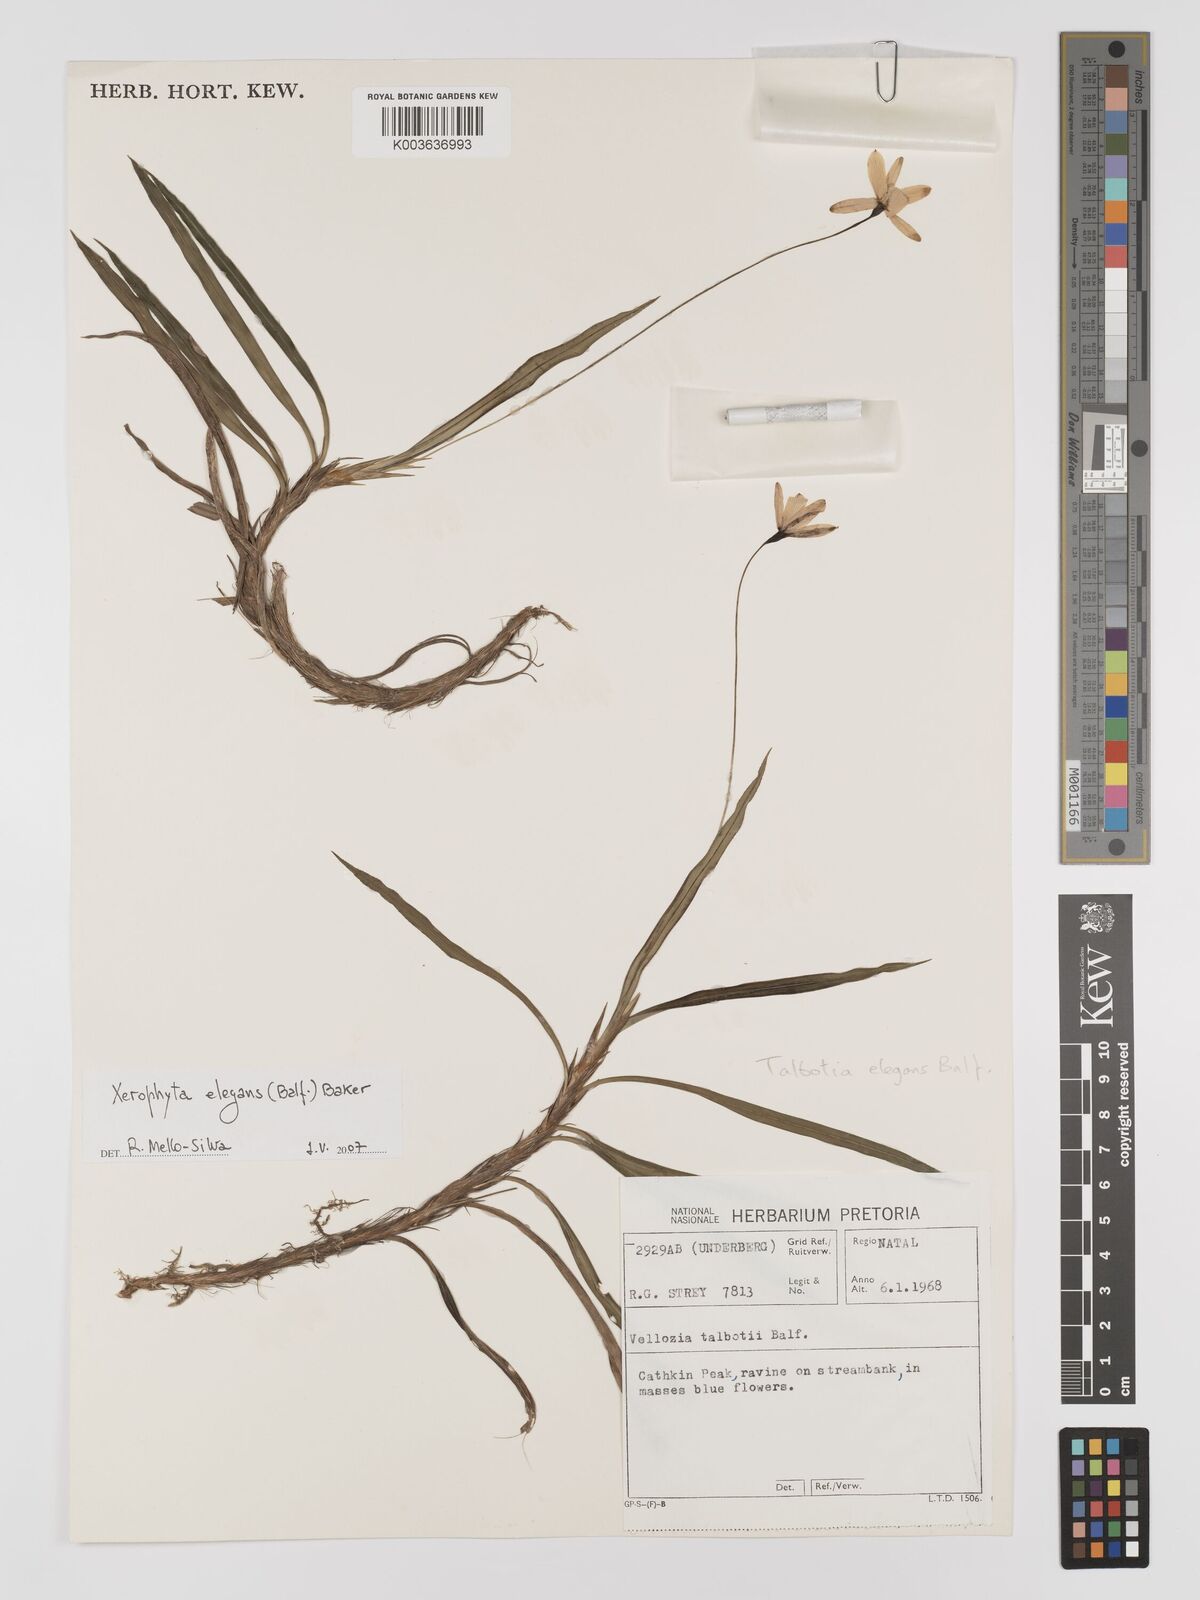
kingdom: Plantae
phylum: Tracheophyta
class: Liliopsida
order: Pandanales
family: Velloziaceae
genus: Xerophyta
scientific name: Xerophyta elegans
